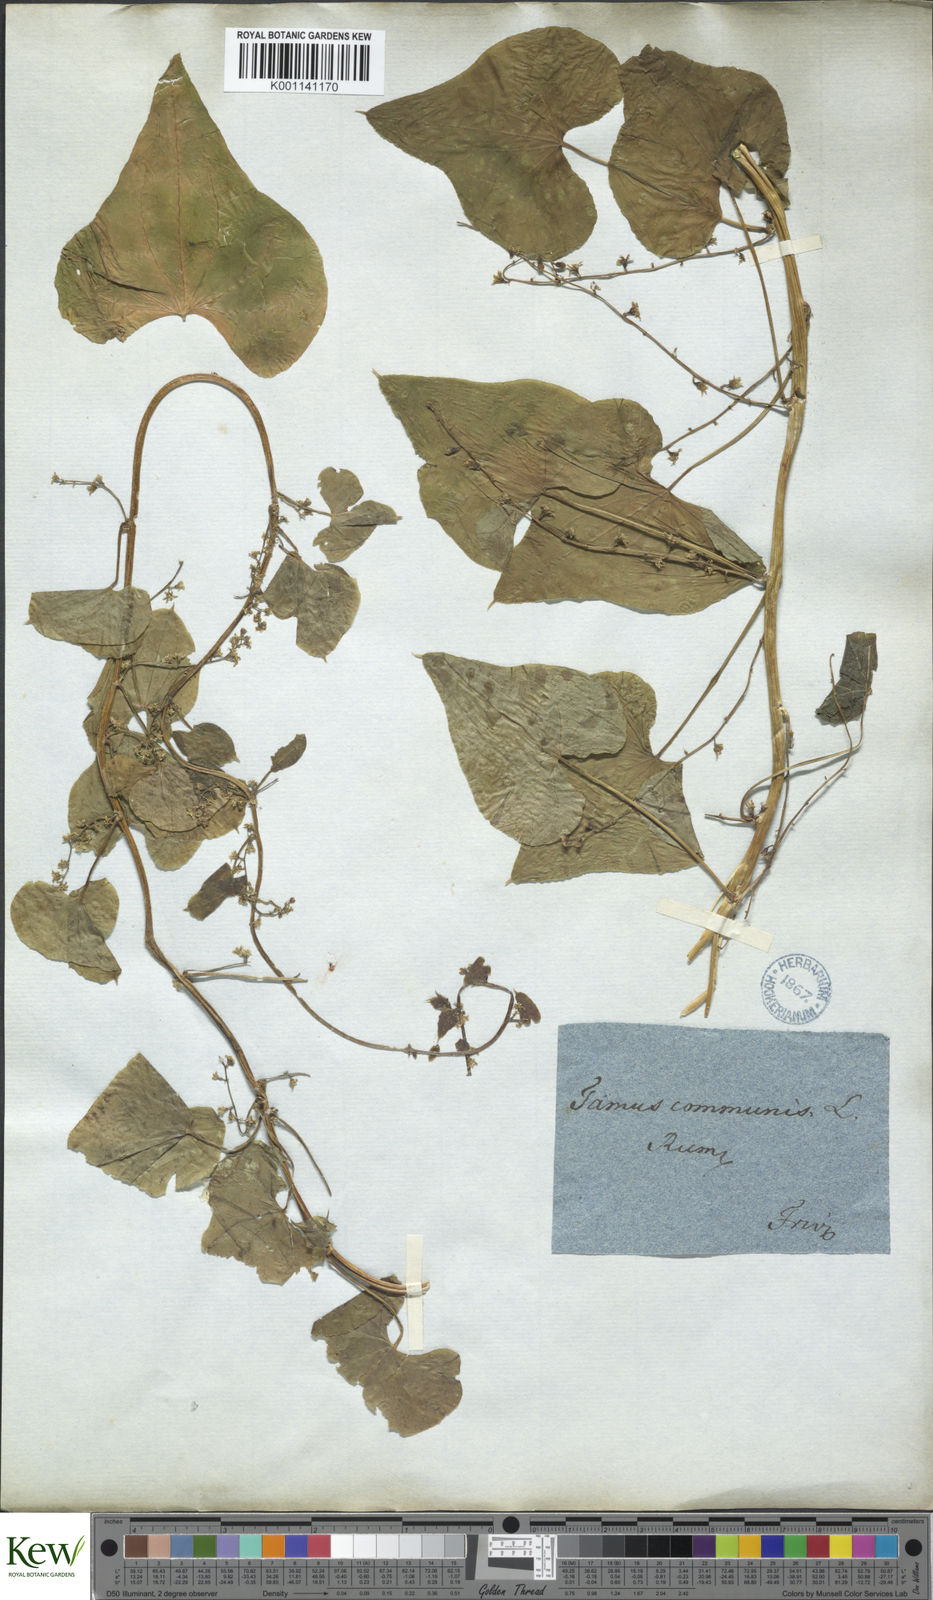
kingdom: Plantae
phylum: Tracheophyta
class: Liliopsida
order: Dioscoreales
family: Dioscoreaceae
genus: Dioscorea
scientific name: Dioscorea communis
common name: Black-bindweed
